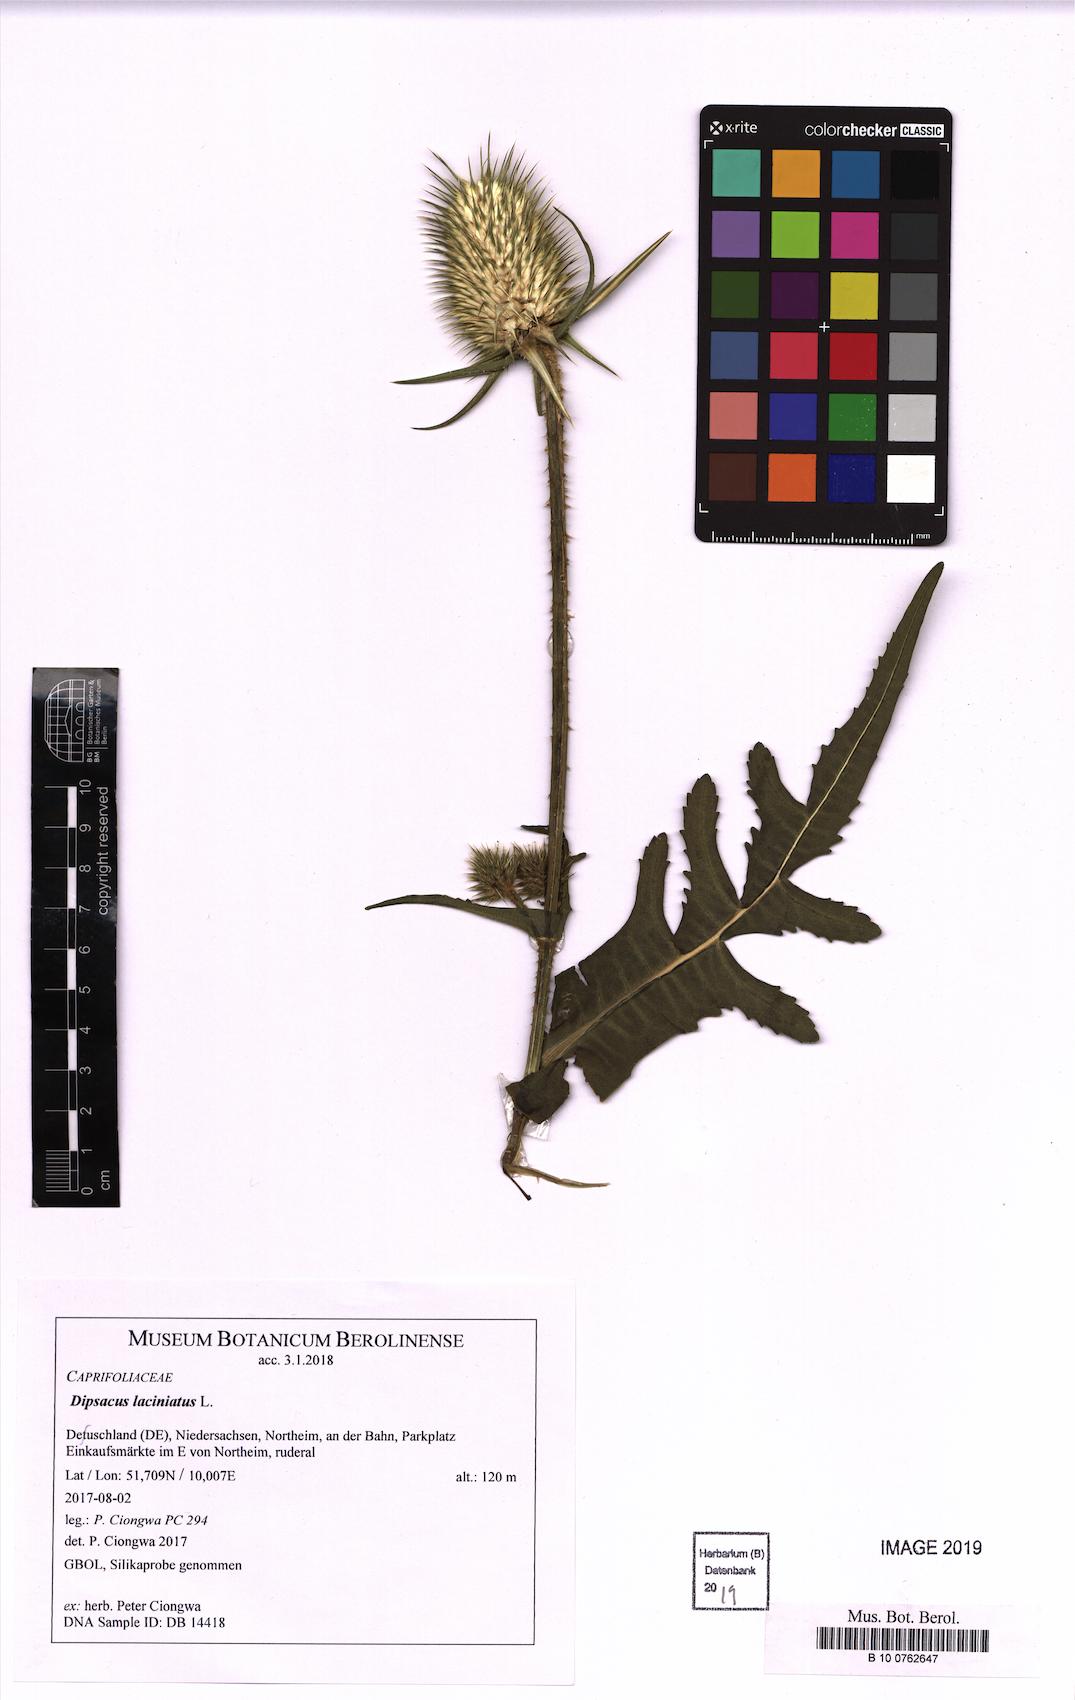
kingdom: Plantae
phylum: Tracheophyta
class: Magnoliopsida
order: Dipsacales
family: Caprifoliaceae
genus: Dipsacus
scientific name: Dipsacus laciniatus
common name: Cut-leaved teasel
